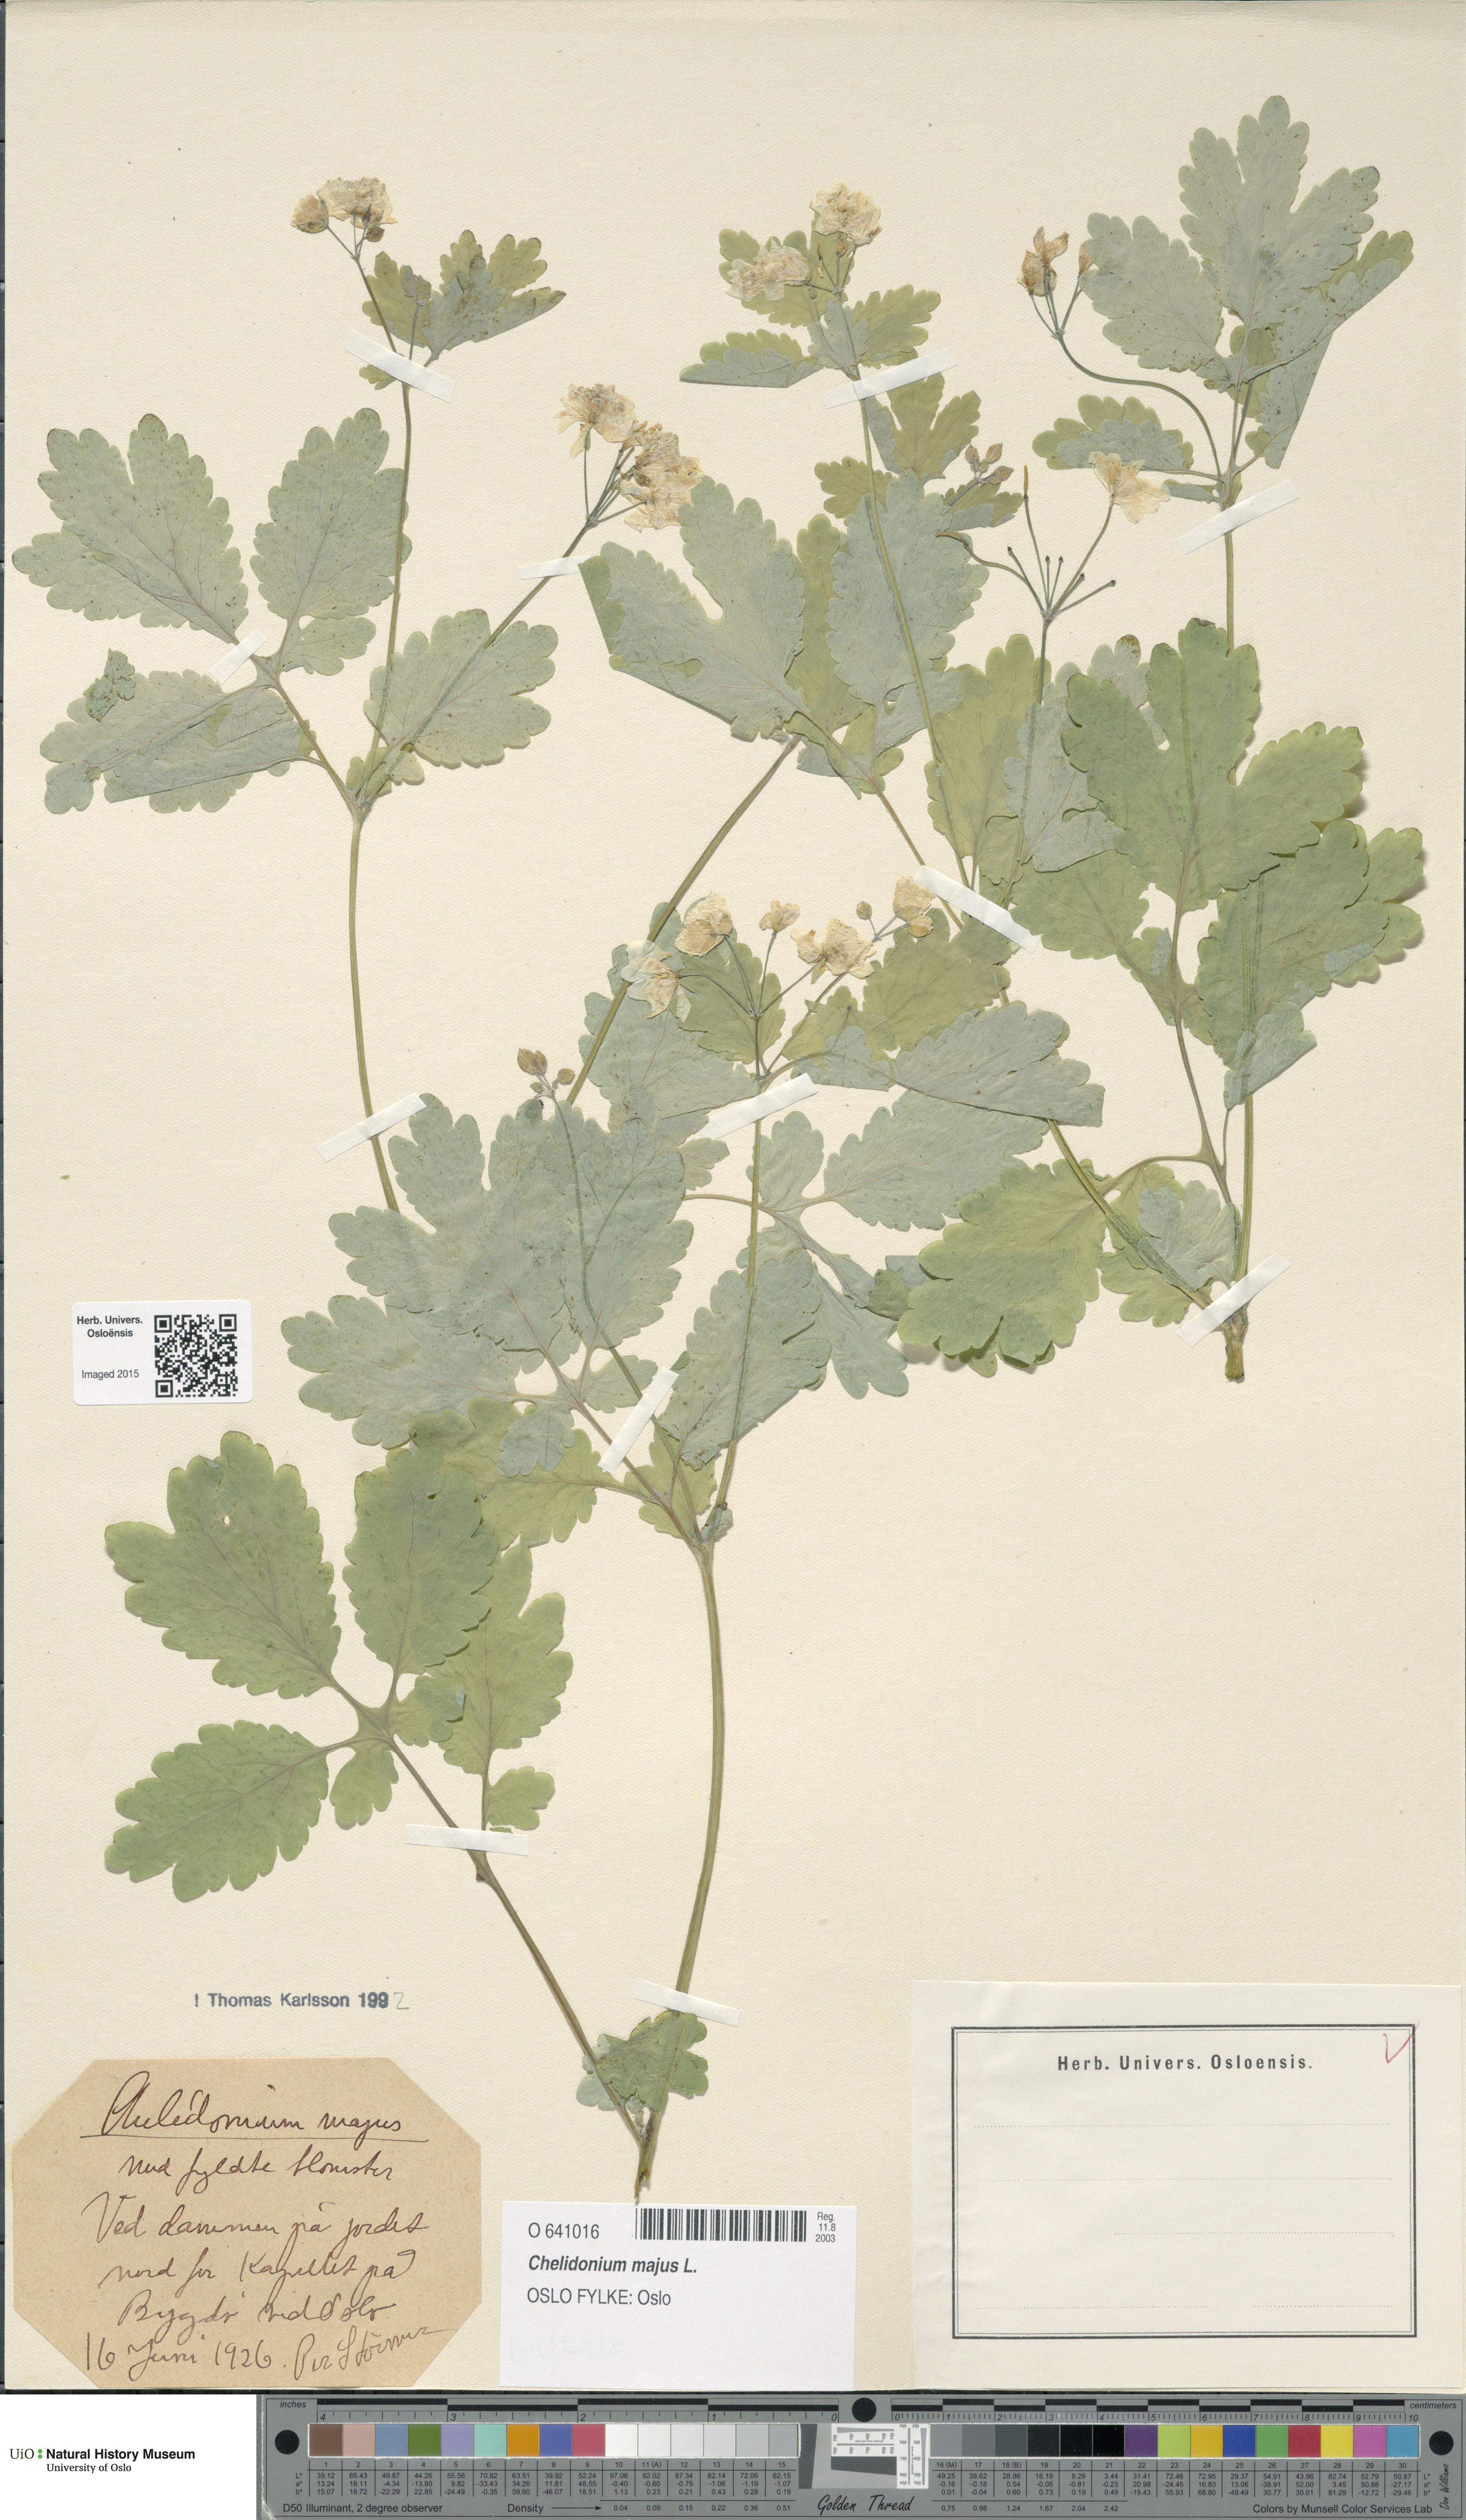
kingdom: Plantae
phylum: Tracheophyta
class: Magnoliopsida
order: Ranunculales
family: Papaveraceae
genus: Chelidonium
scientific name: Chelidonium majus
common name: Greater celandine
